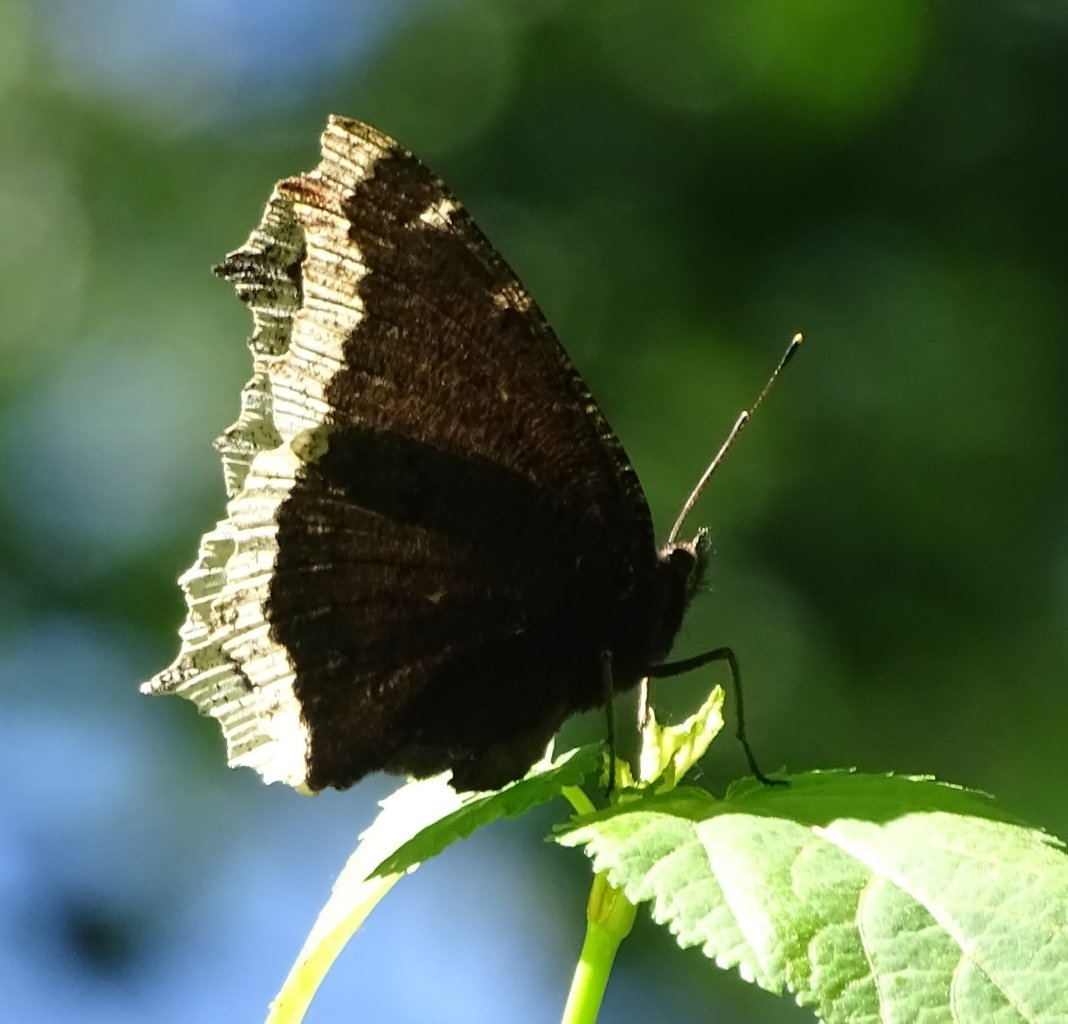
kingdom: Animalia
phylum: Arthropoda
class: Insecta
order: Lepidoptera
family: Nymphalidae
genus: Nymphalis
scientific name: Nymphalis antiopa
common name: Mourning Cloak
